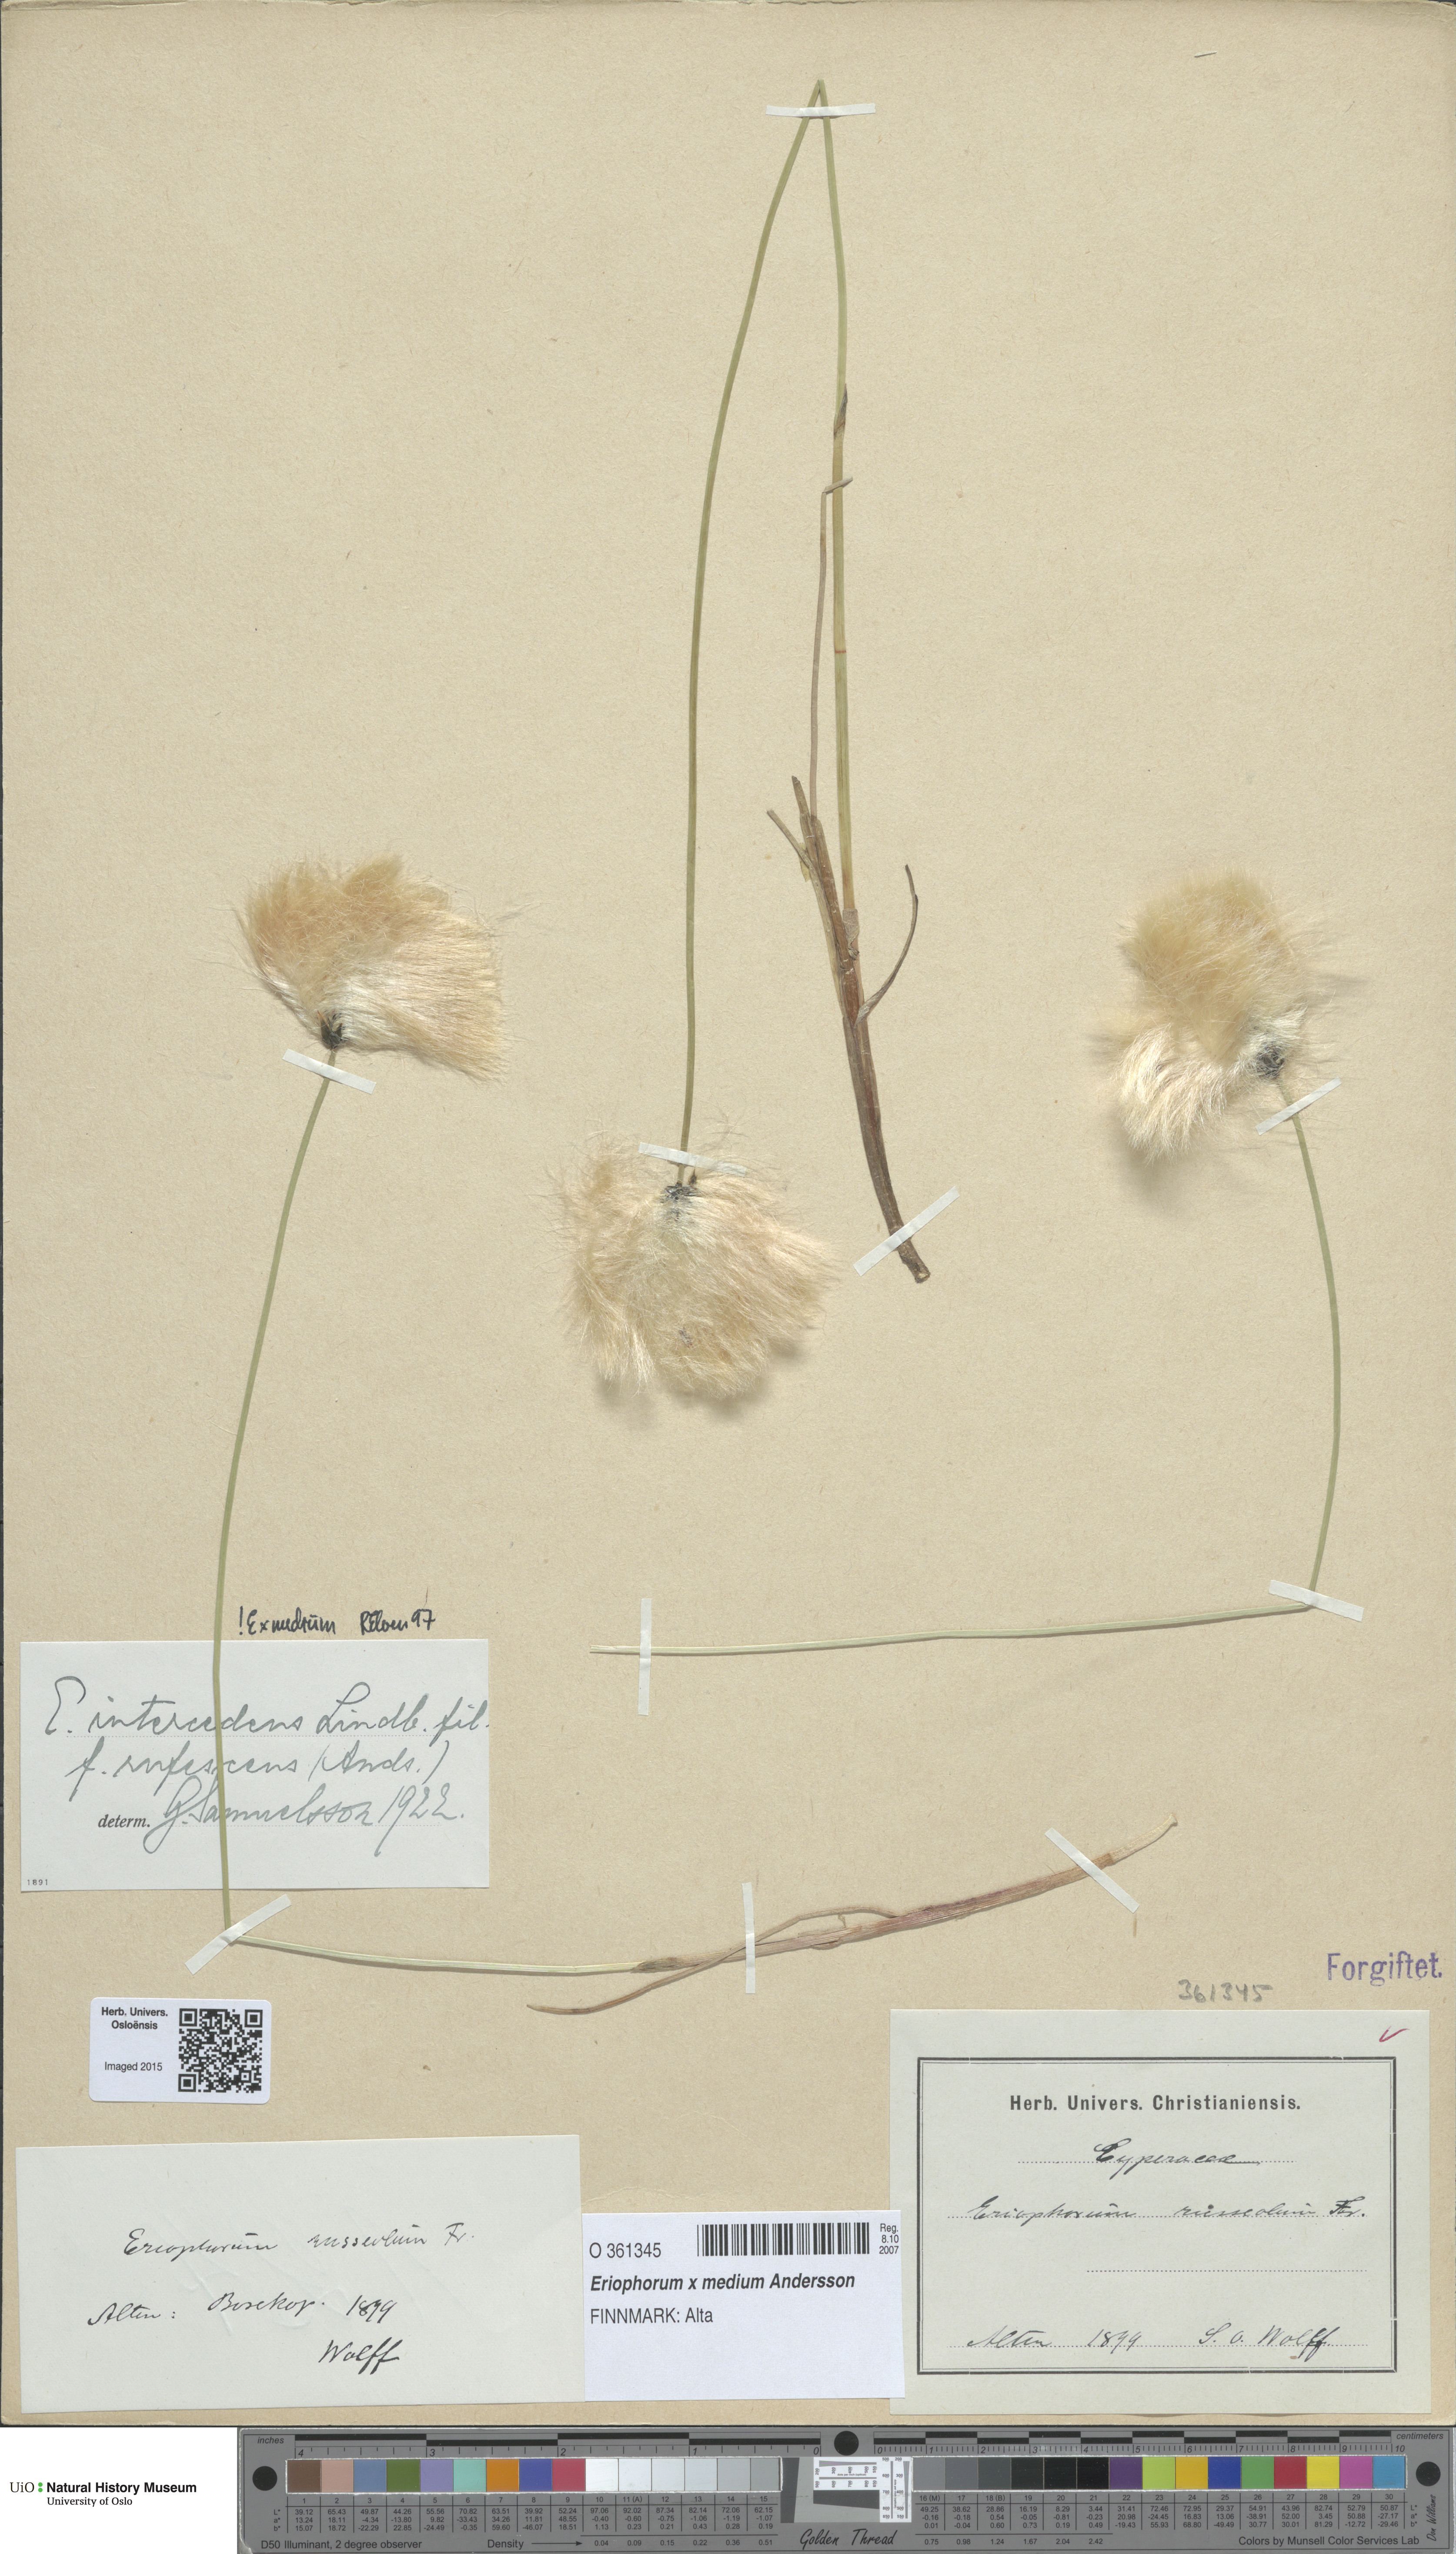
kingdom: Plantae
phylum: Tracheophyta
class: Liliopsida
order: Poales
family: Cyperaceae
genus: Eriophorum
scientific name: Eriophorum medium
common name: Intermediate cottongrass
